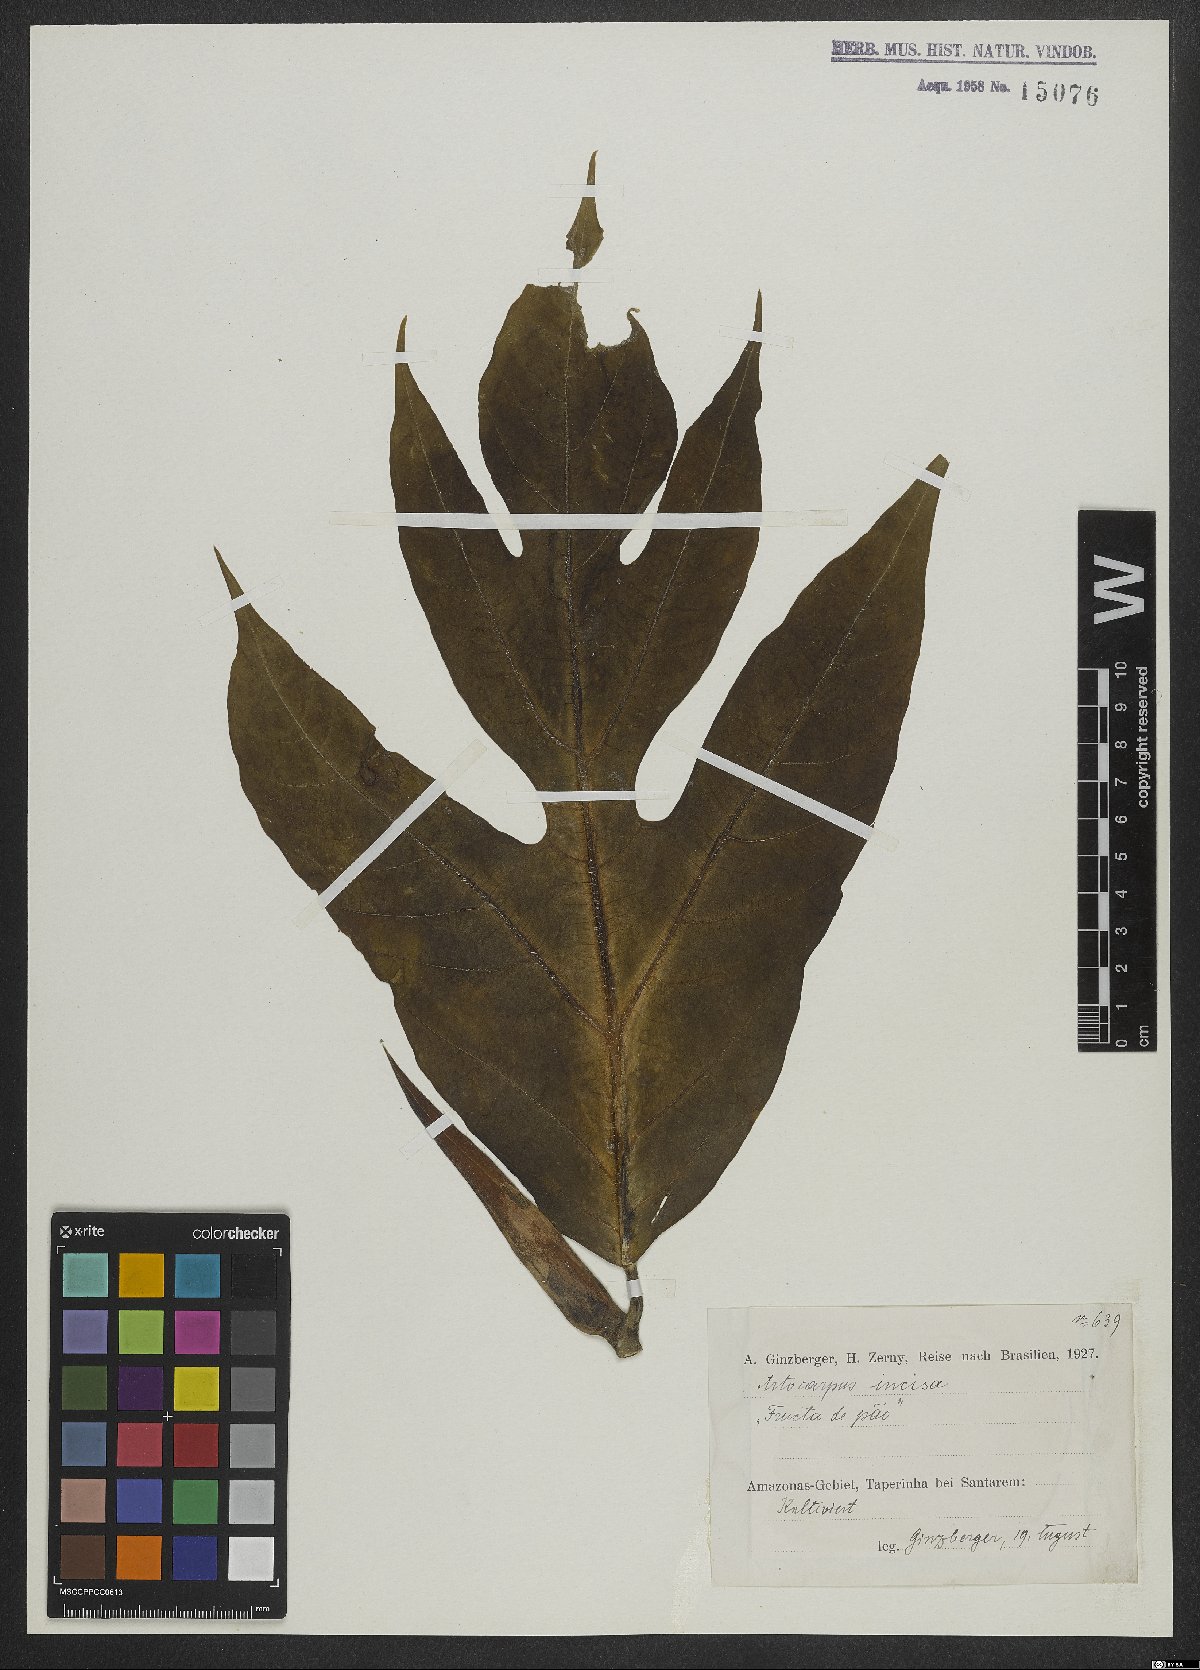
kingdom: Plantae
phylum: Tracheophyta
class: Magnoliopsida
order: Rosales
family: Moraceae
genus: Artocarpus
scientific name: Artocarpus altilis
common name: Breadfruit
